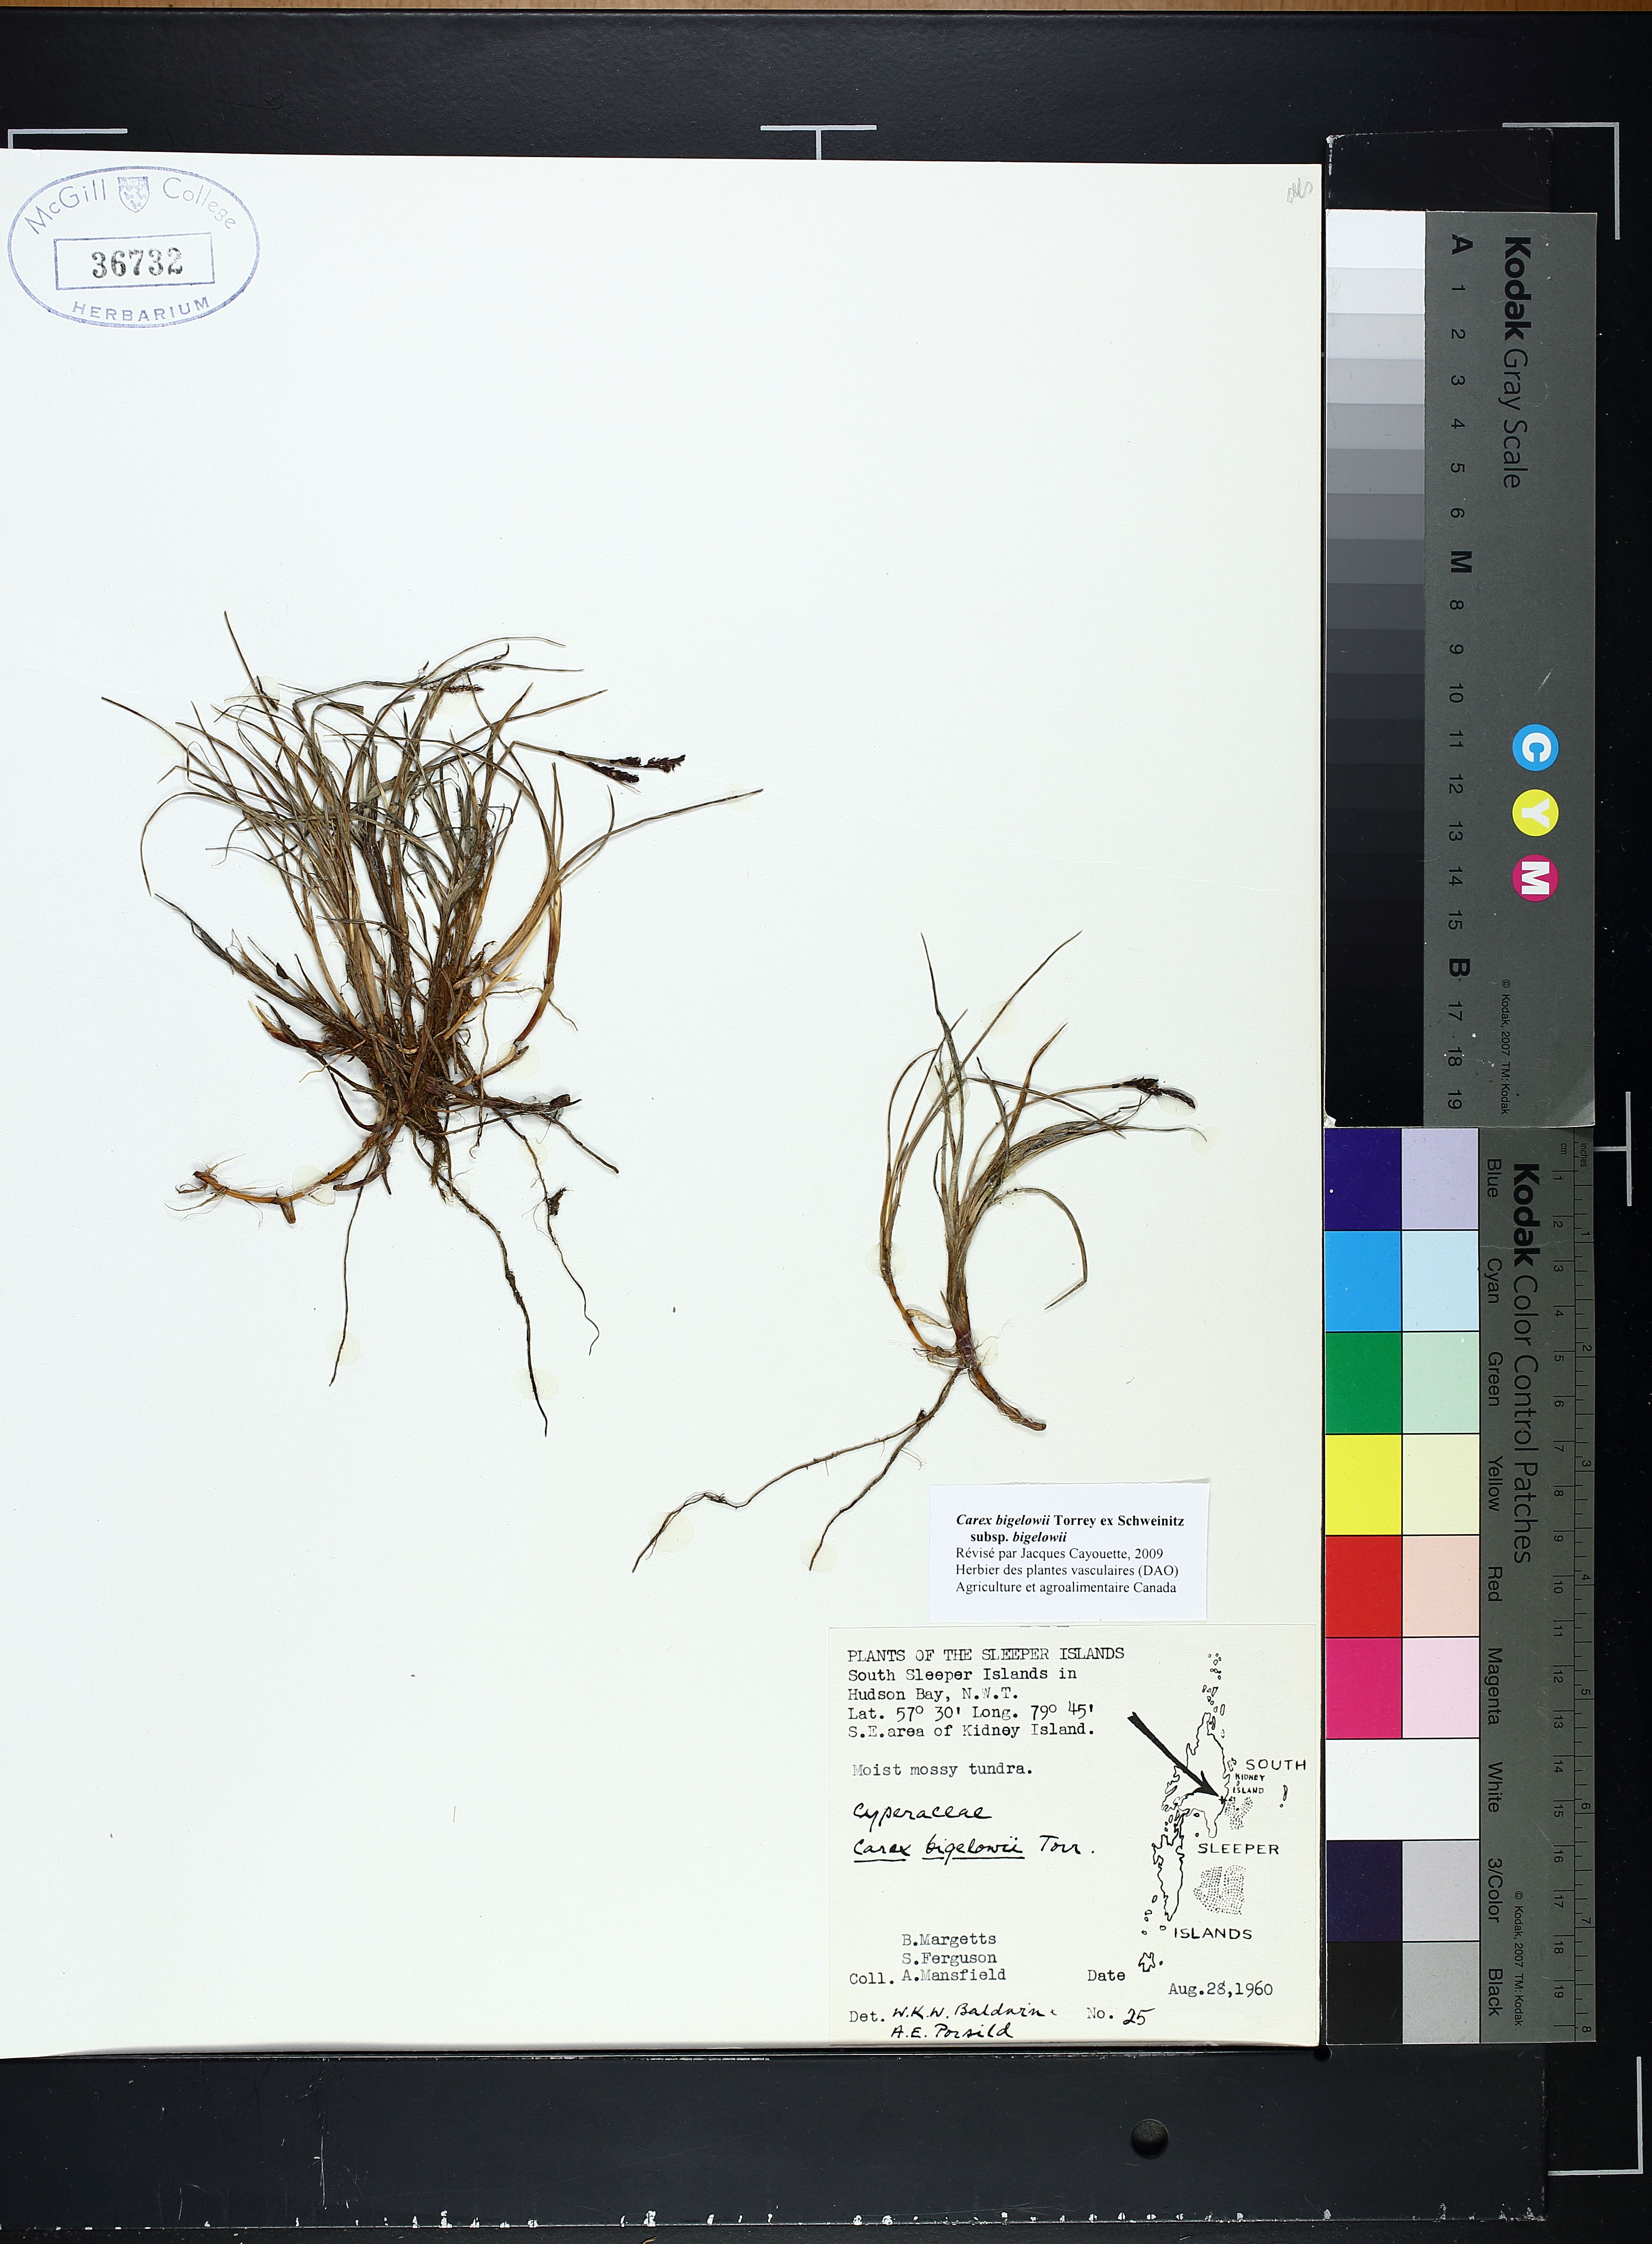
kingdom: Plantae
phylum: Tracheophyta
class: Liliopsida
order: Poales
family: Cyperaceae
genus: Carex
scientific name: Carex bigelowii
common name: Stiff sedge
